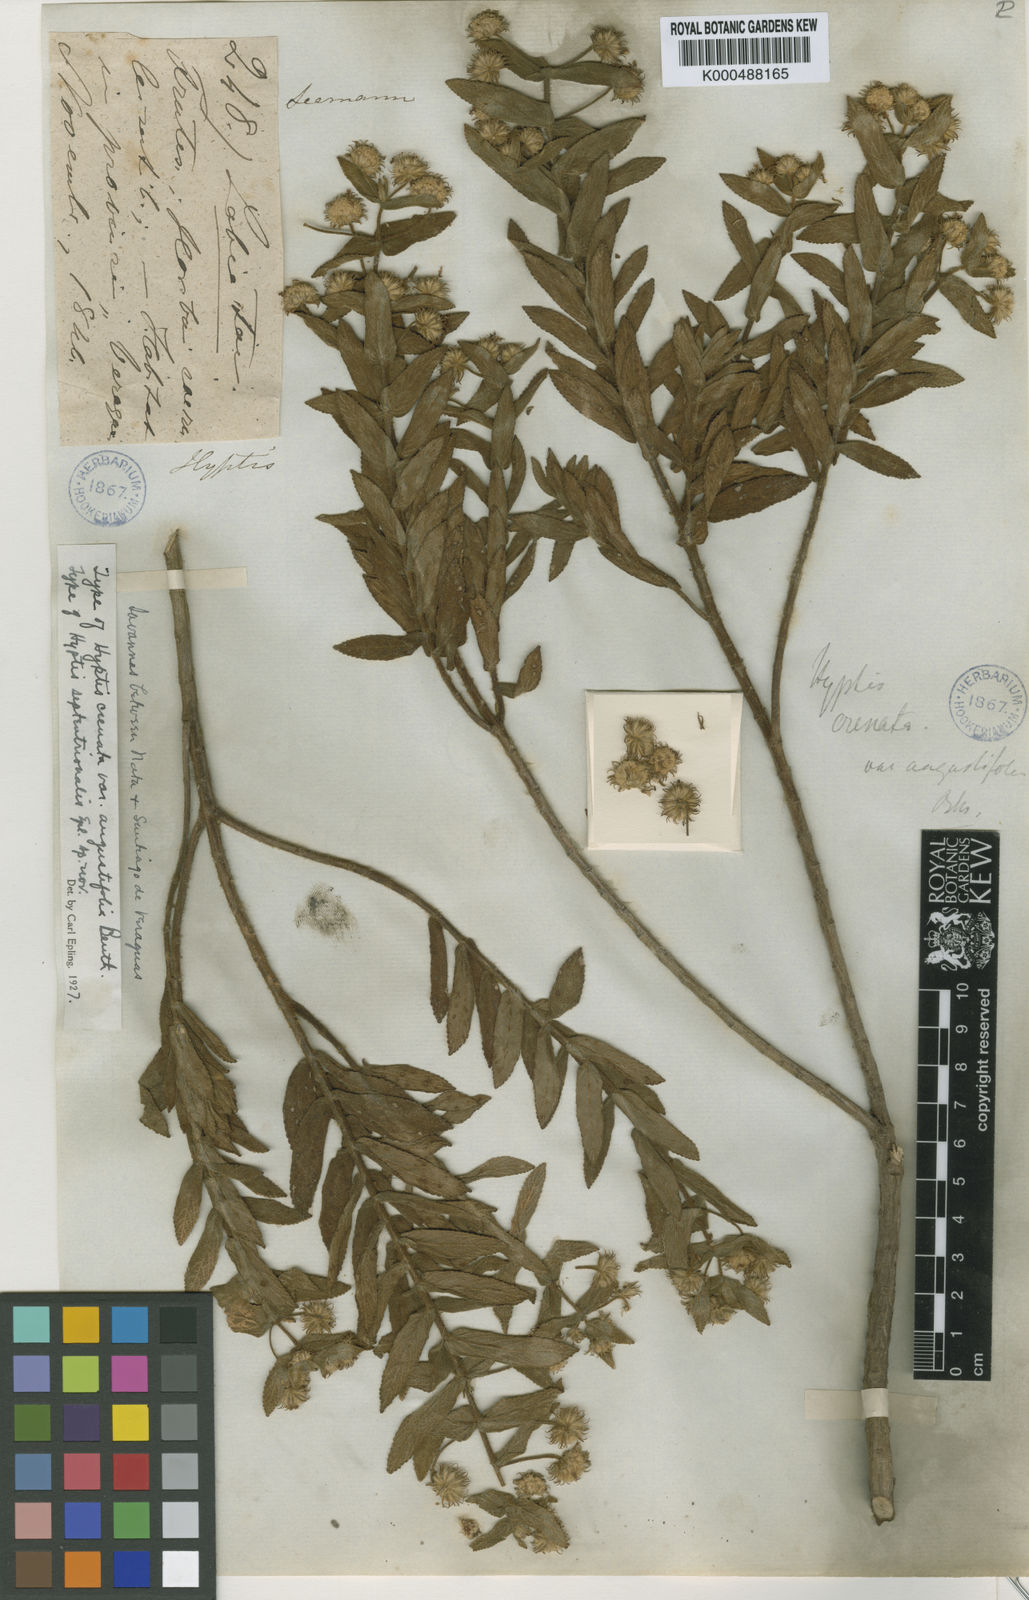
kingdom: Plantae
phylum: Tracheophyta
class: Magnoliopsida
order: Lamiales
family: Lamiaceae
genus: Hyptis
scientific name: Hyptis dilatata
